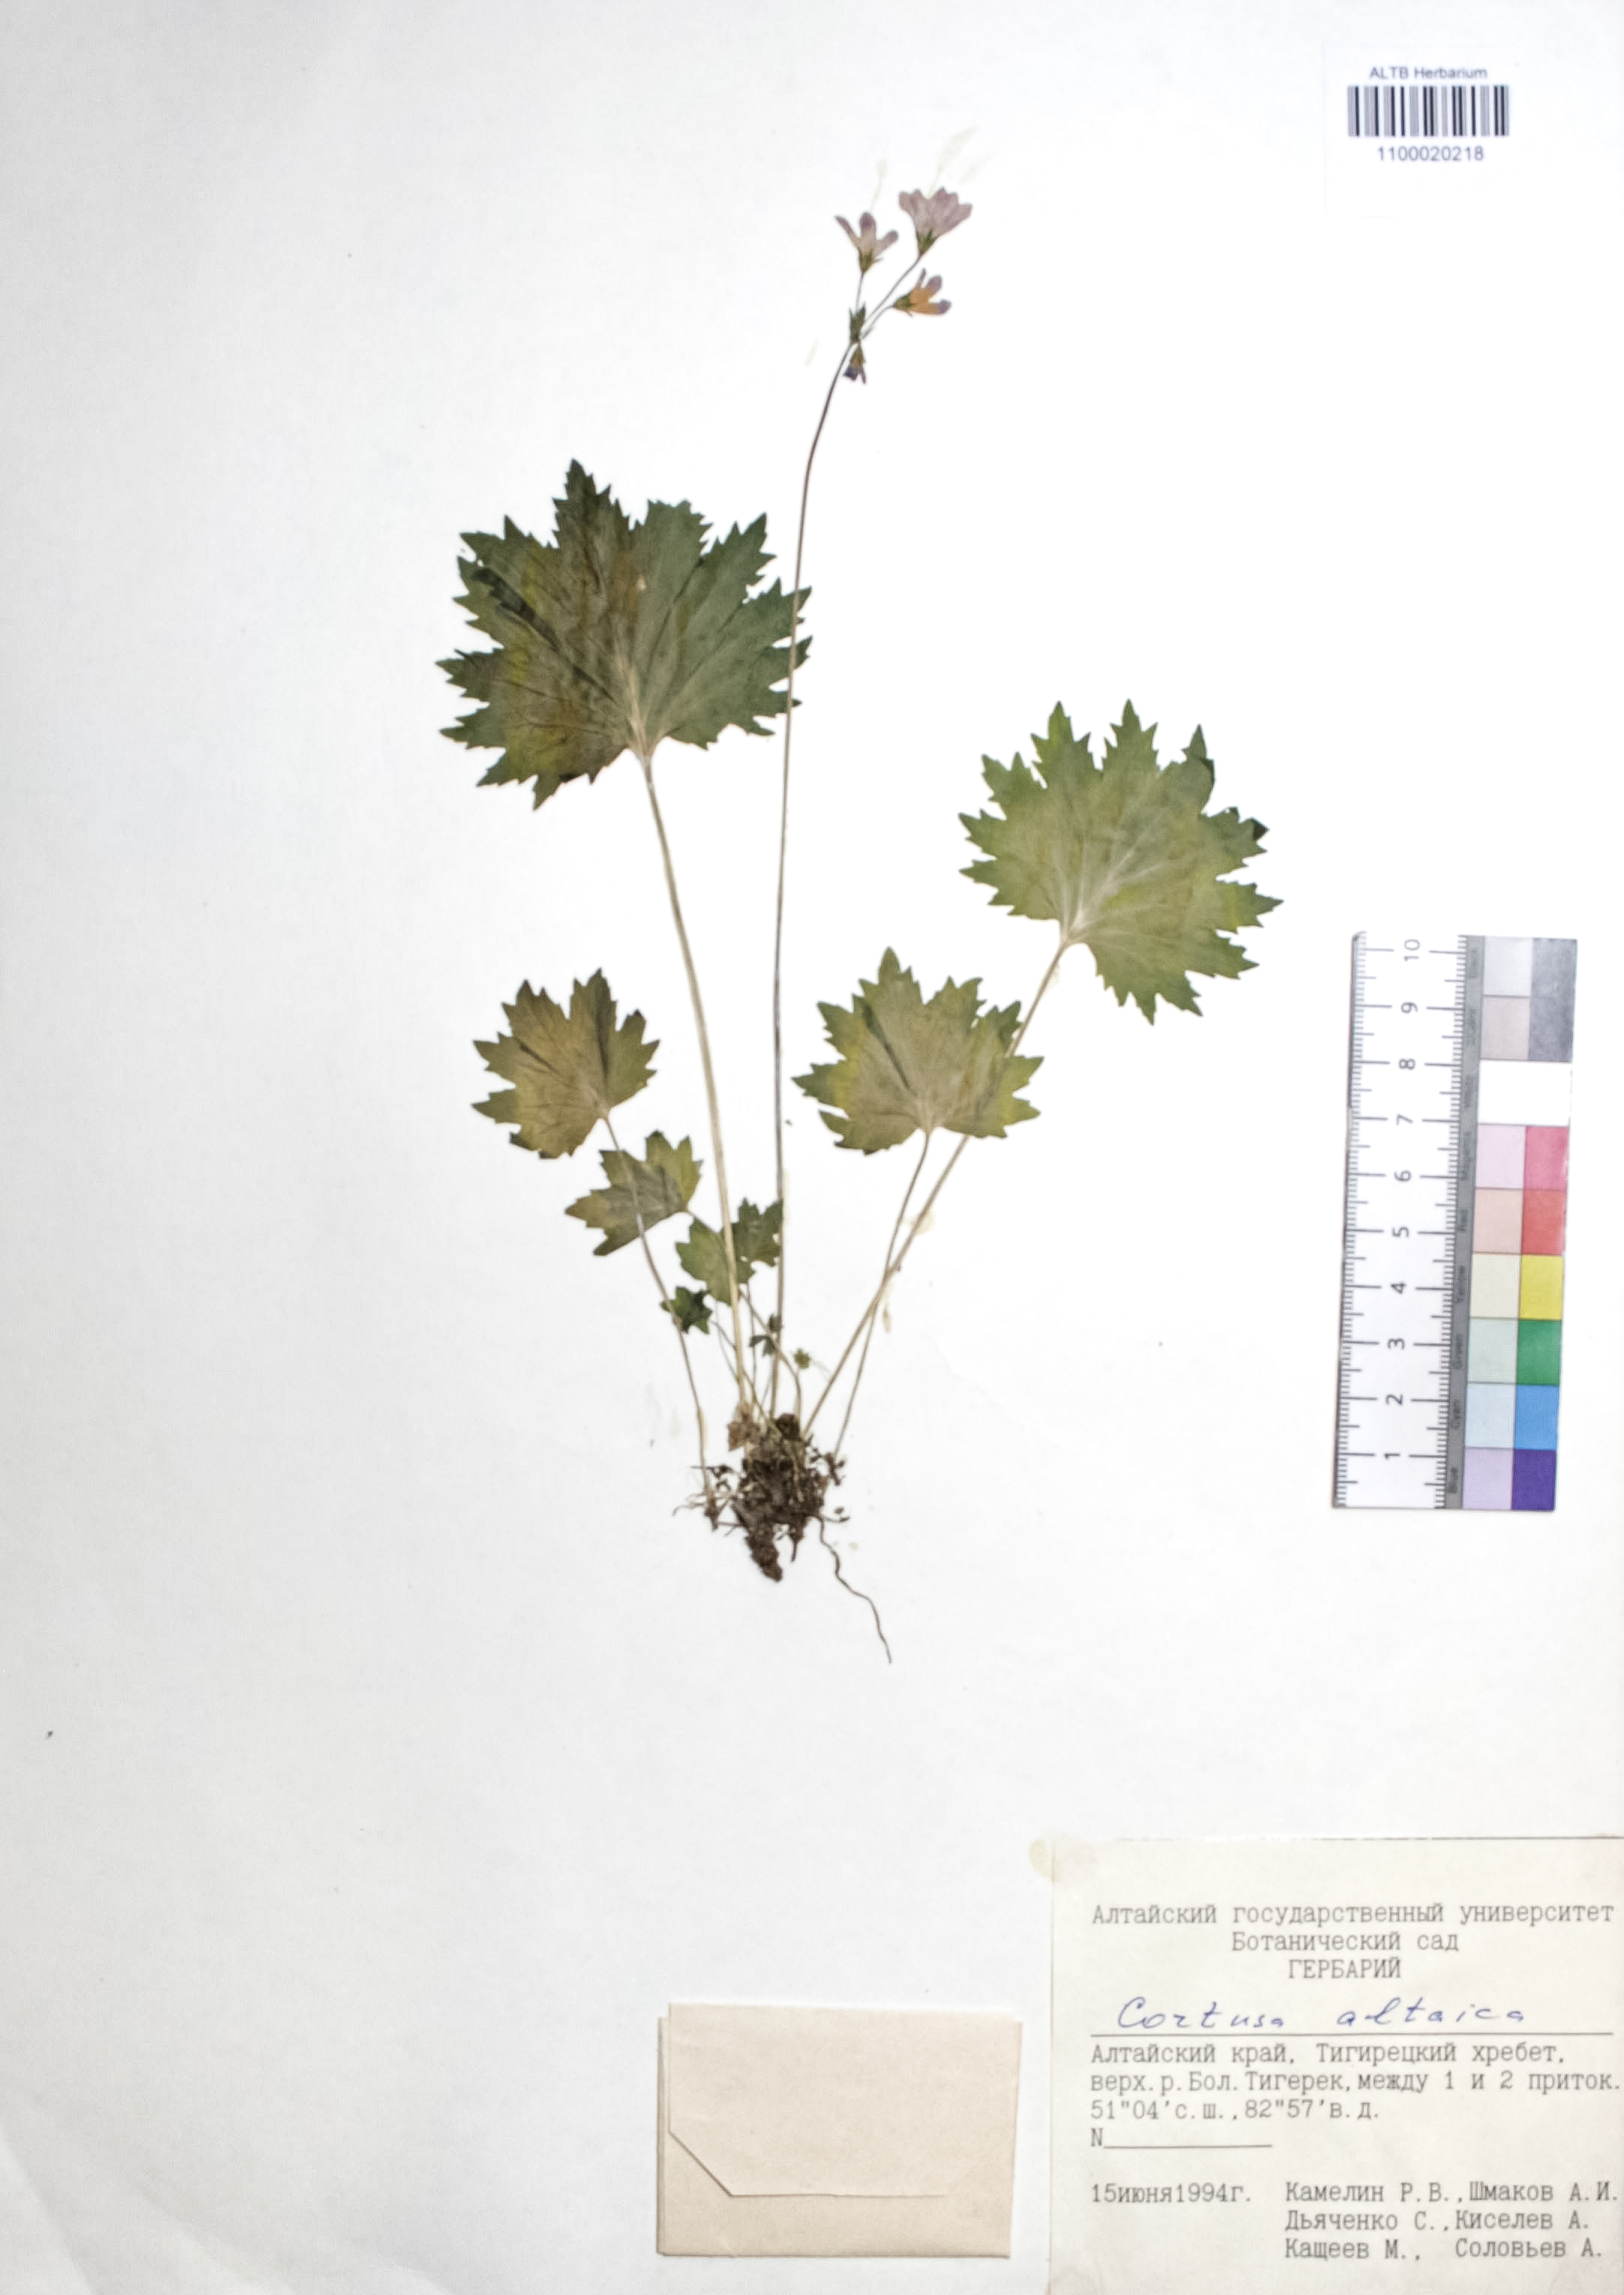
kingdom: Plantae
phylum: Tracheophyta
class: Magnoliopsida
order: Ericales
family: Primulaceae
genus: Primula
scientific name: Primula matthioli
